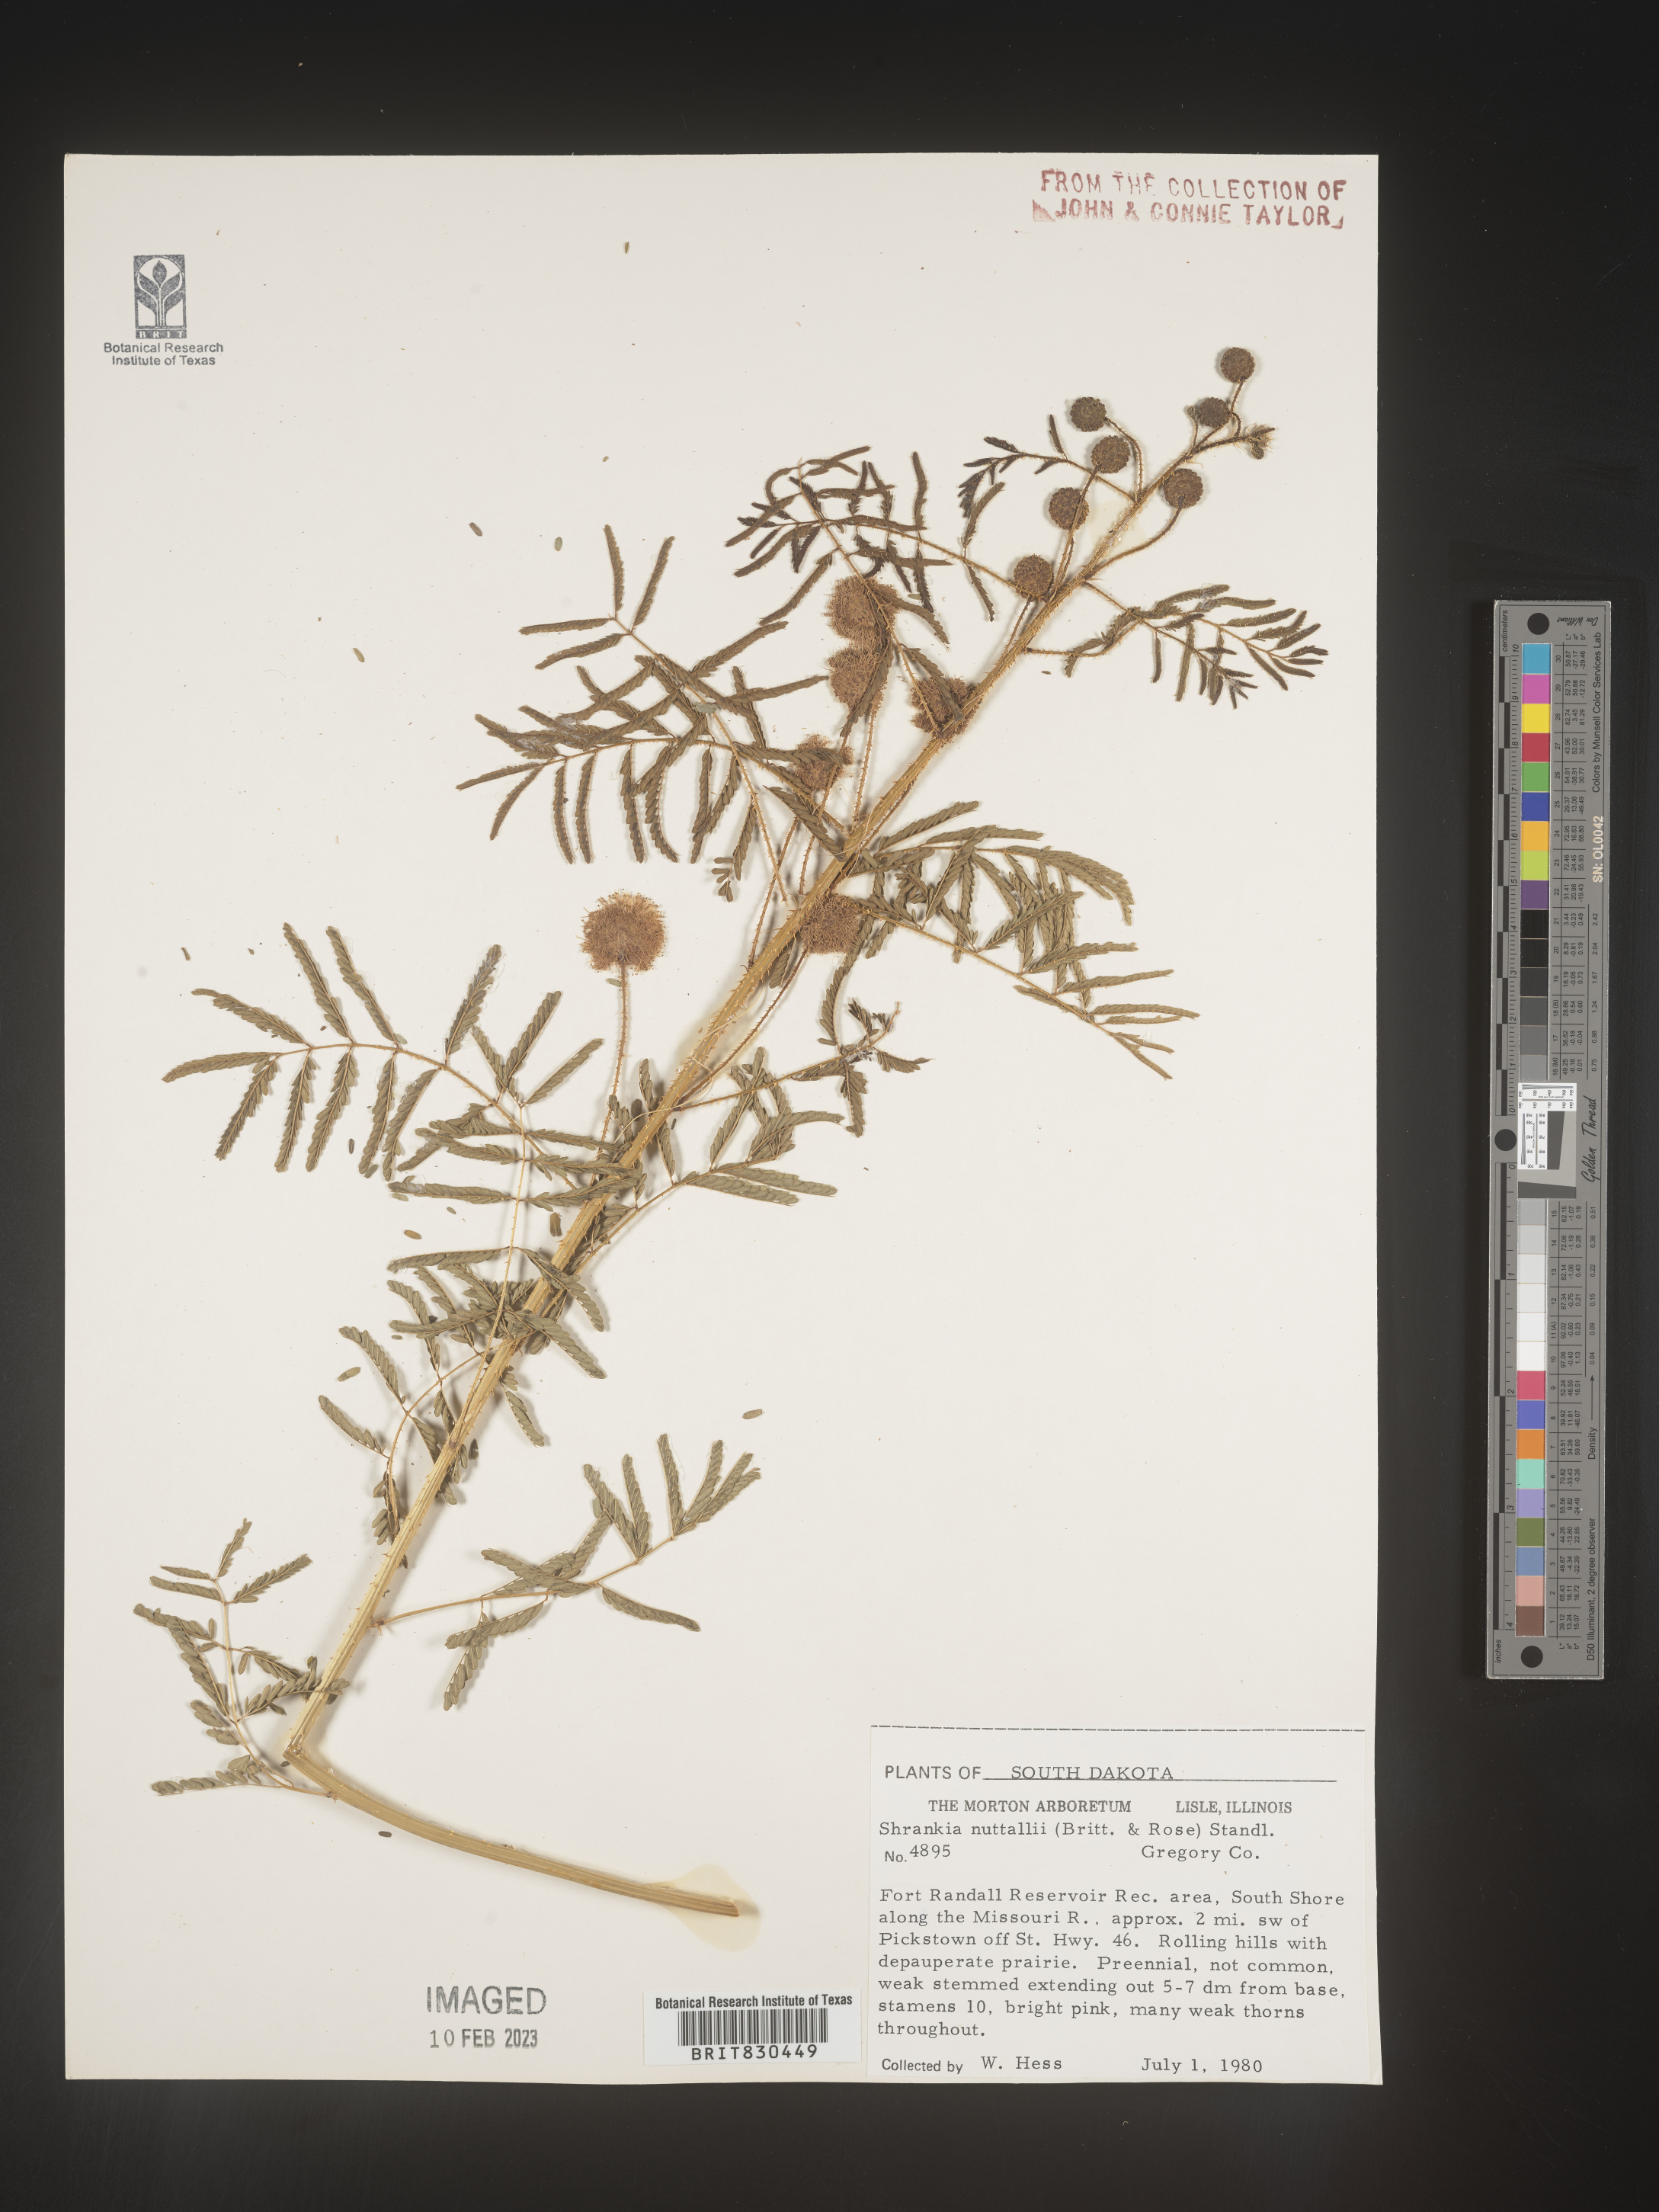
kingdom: Plantae
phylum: Tracheophyta
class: Magnoliopsida
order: Fabales
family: Fabaceae
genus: Mimosa
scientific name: Mimosa quadrivalvis
